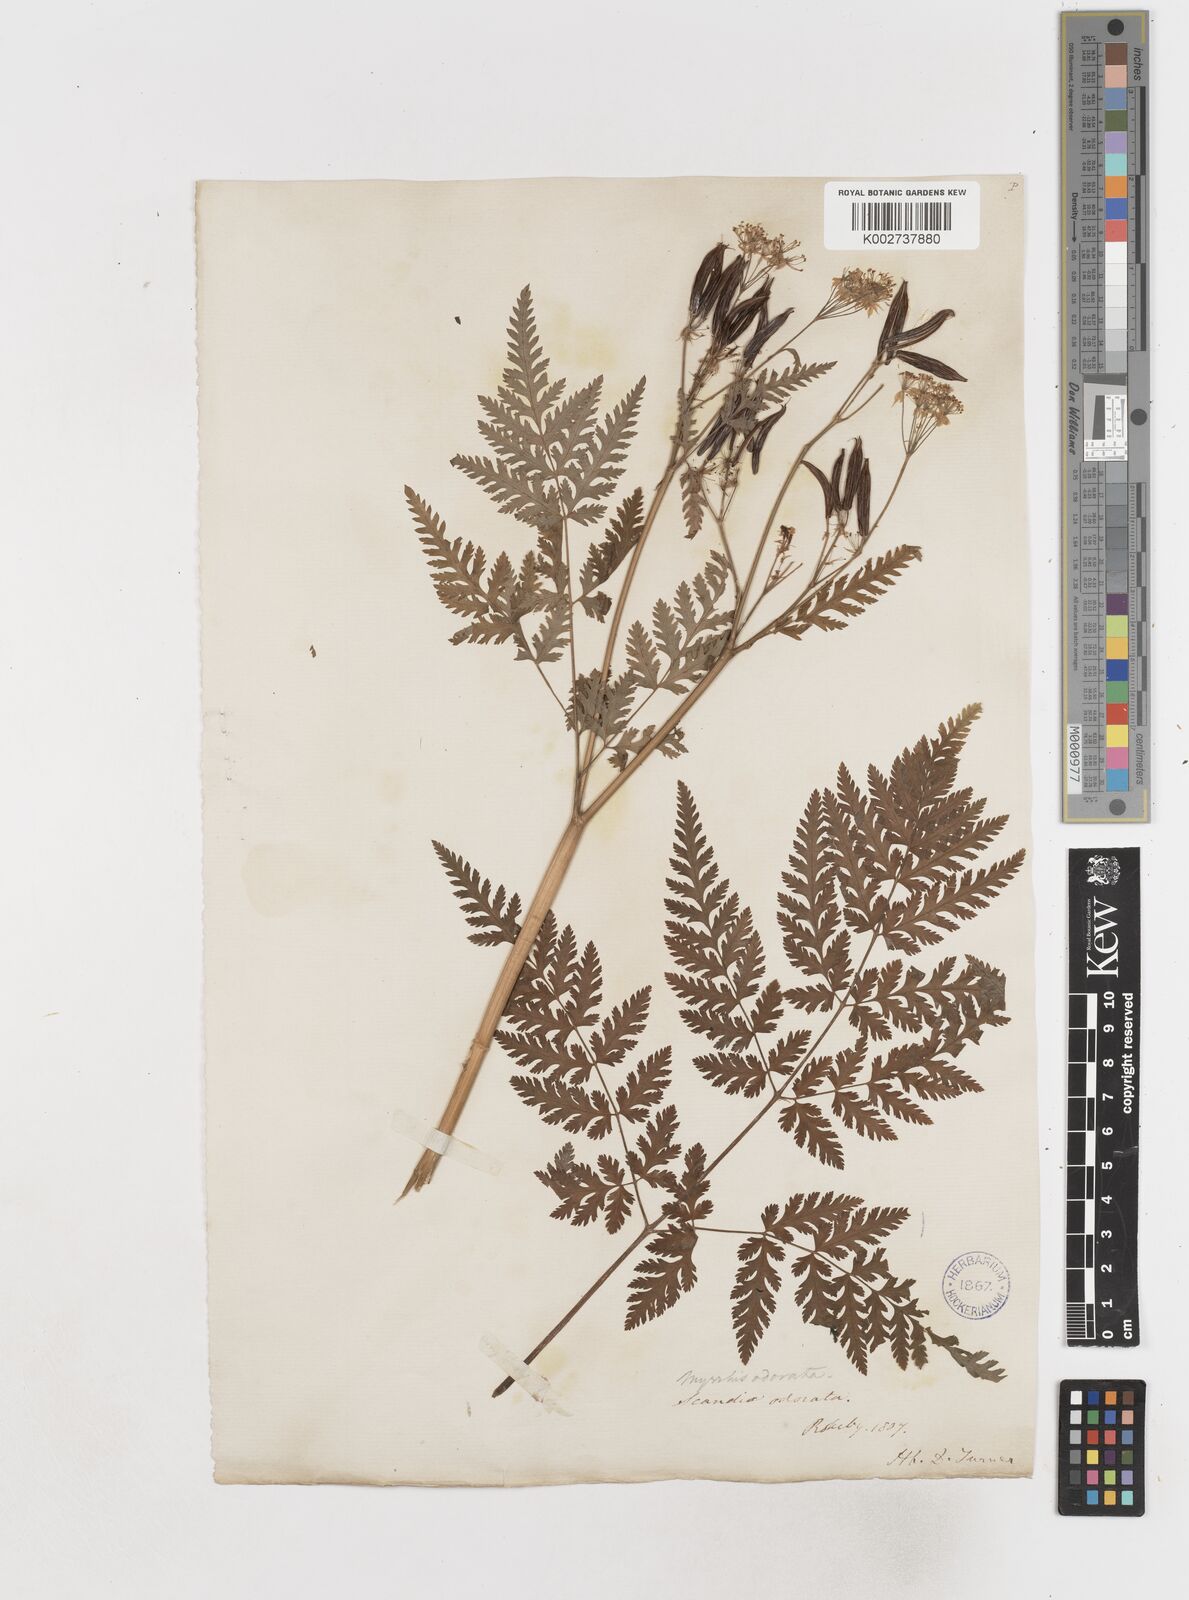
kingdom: Plantae
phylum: Tracheophyta
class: Magnoliopsida
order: Apiales
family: Apiaceae
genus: Myrrhis
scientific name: Myrrhis odorata
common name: Sweet cicely
